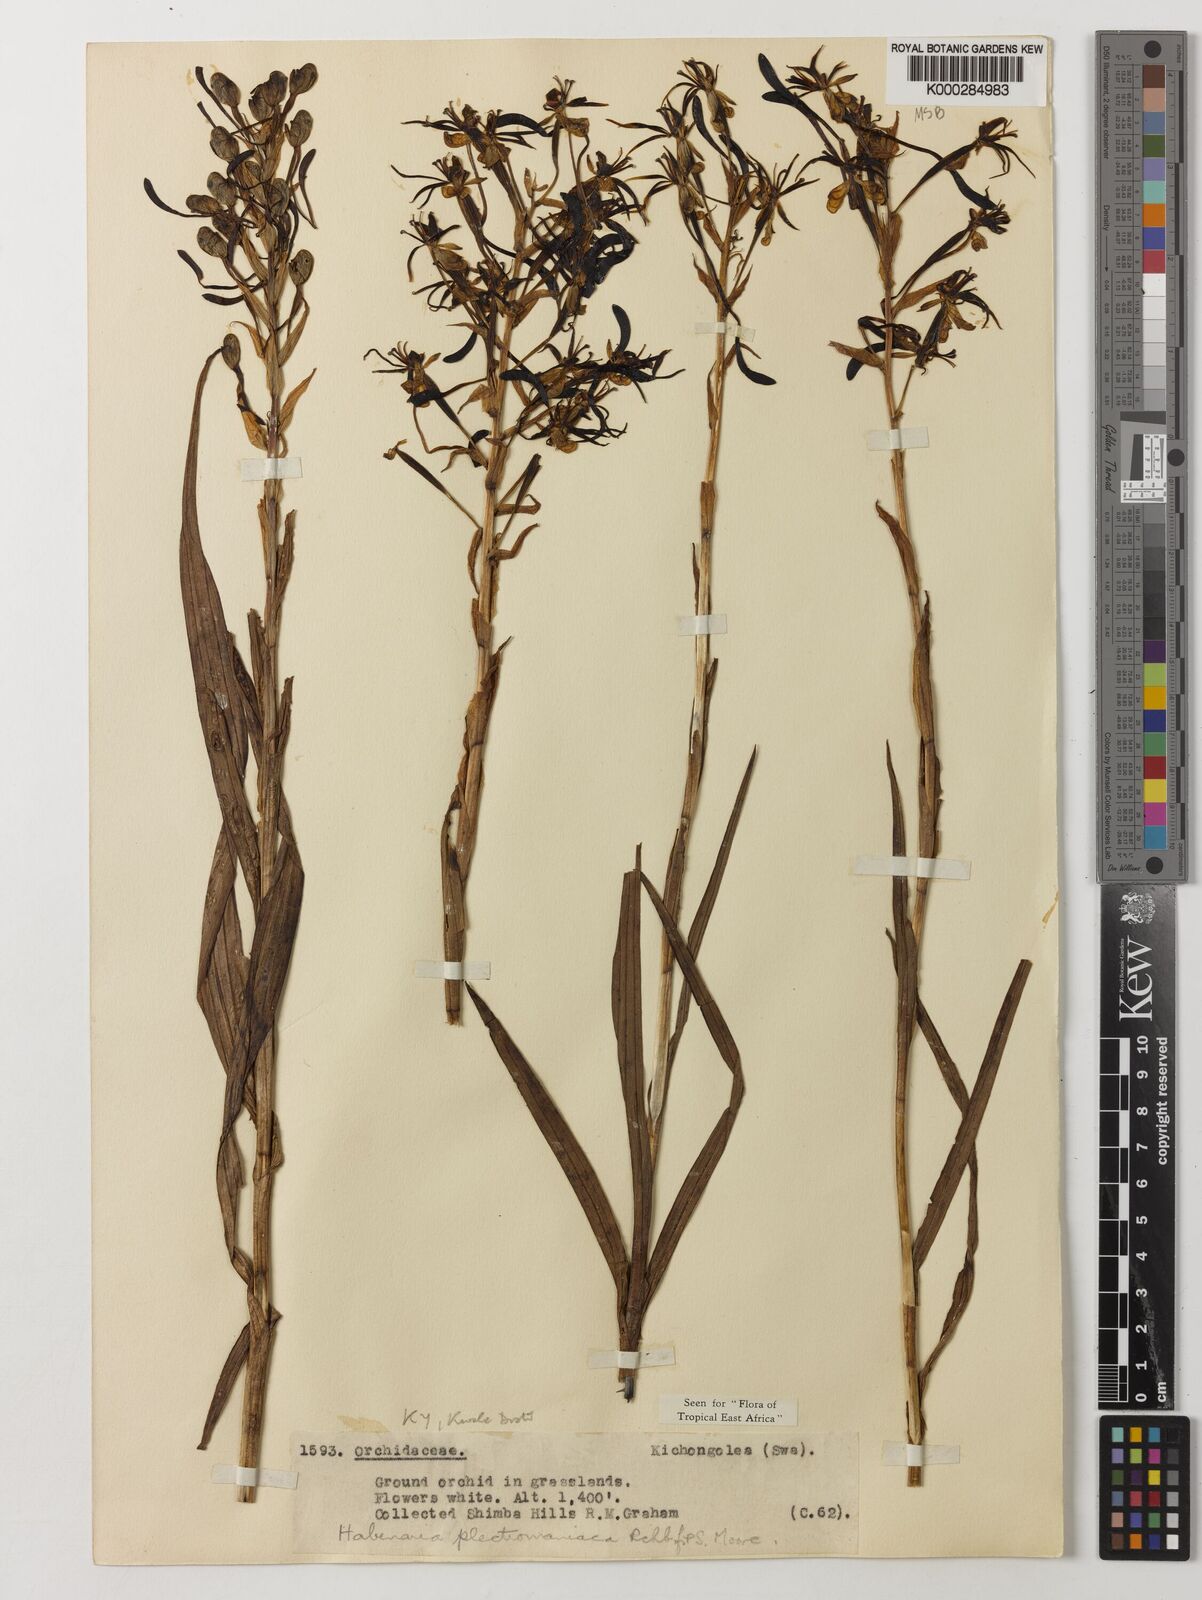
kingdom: Plantae
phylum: Tracheophyta
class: Liliopsida
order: Asparagales
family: Orchidaceae
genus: Habenaria
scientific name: Habenaria plectromaniaca
